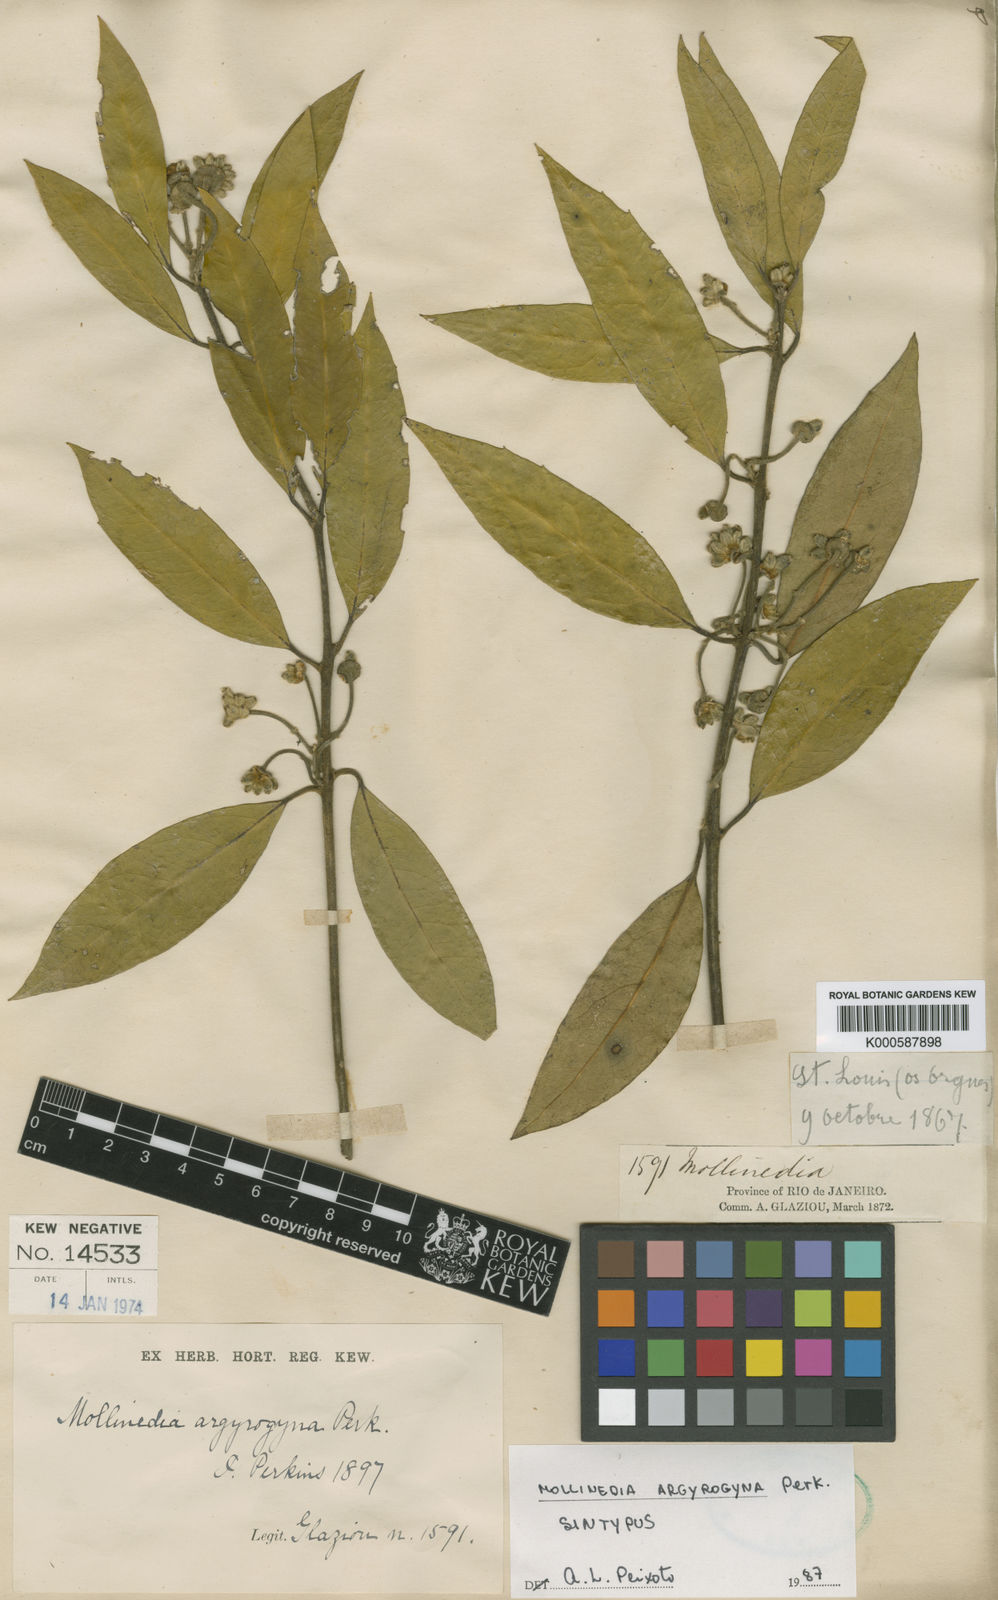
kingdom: Plantae
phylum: Tracheophyta
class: Magnoliopsida
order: Laurales
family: Monimiaceae
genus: Mollinedia
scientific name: Mollinedia argyrogyna
